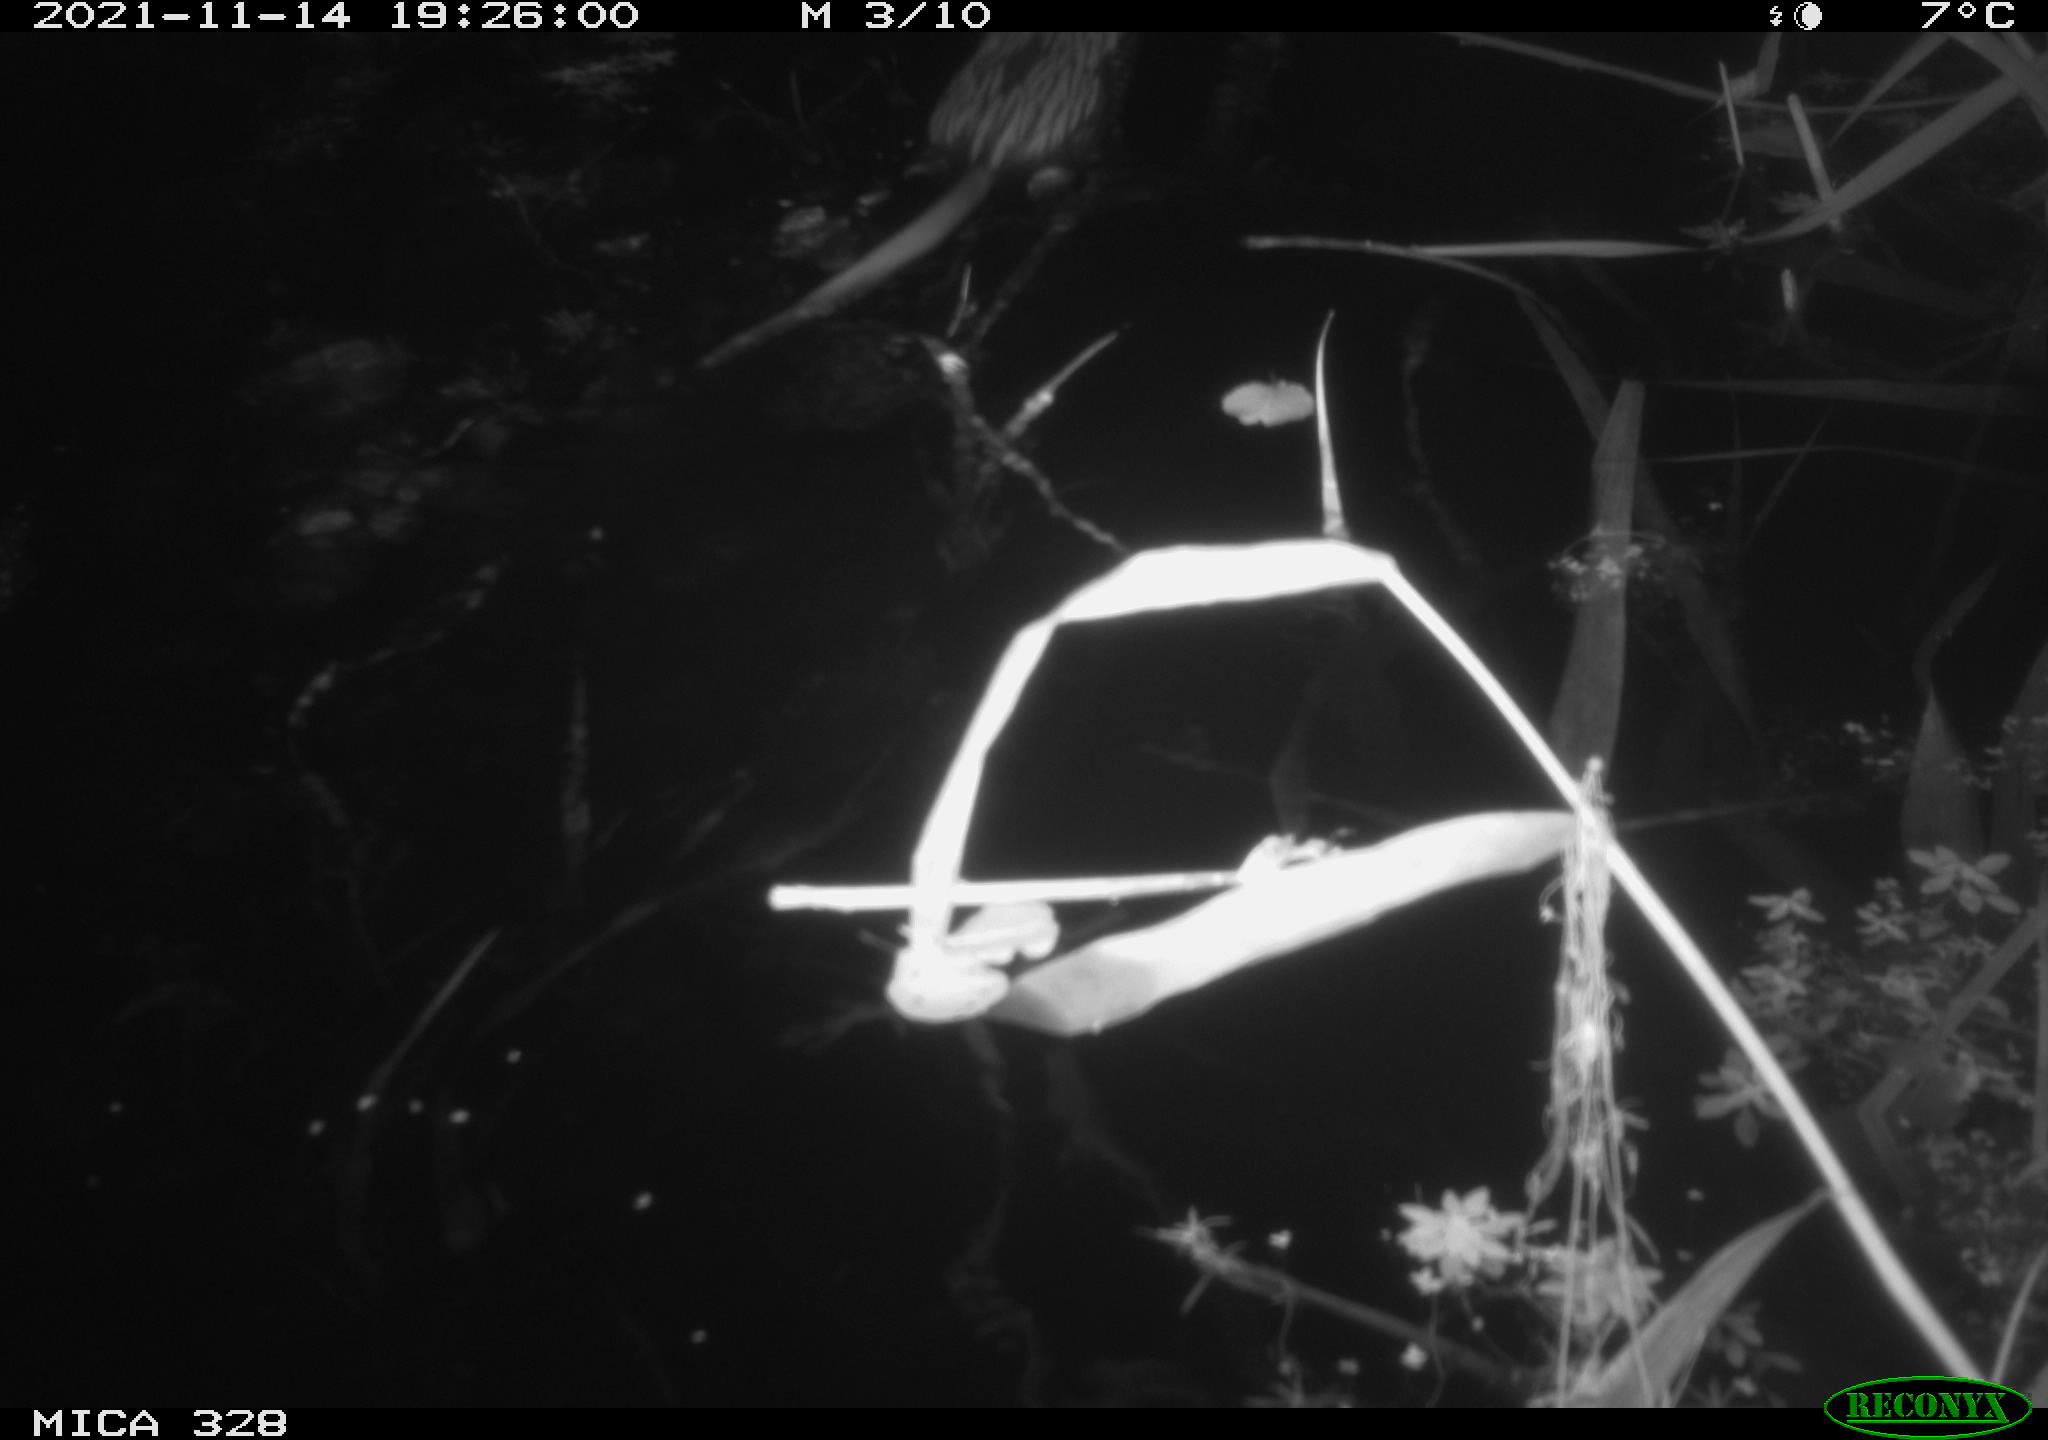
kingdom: Animalia
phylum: Chordata
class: Mammalia
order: Rodentia
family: Cricetidae
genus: Ondatra
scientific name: Ondatra zibethicus
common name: Muskrat
